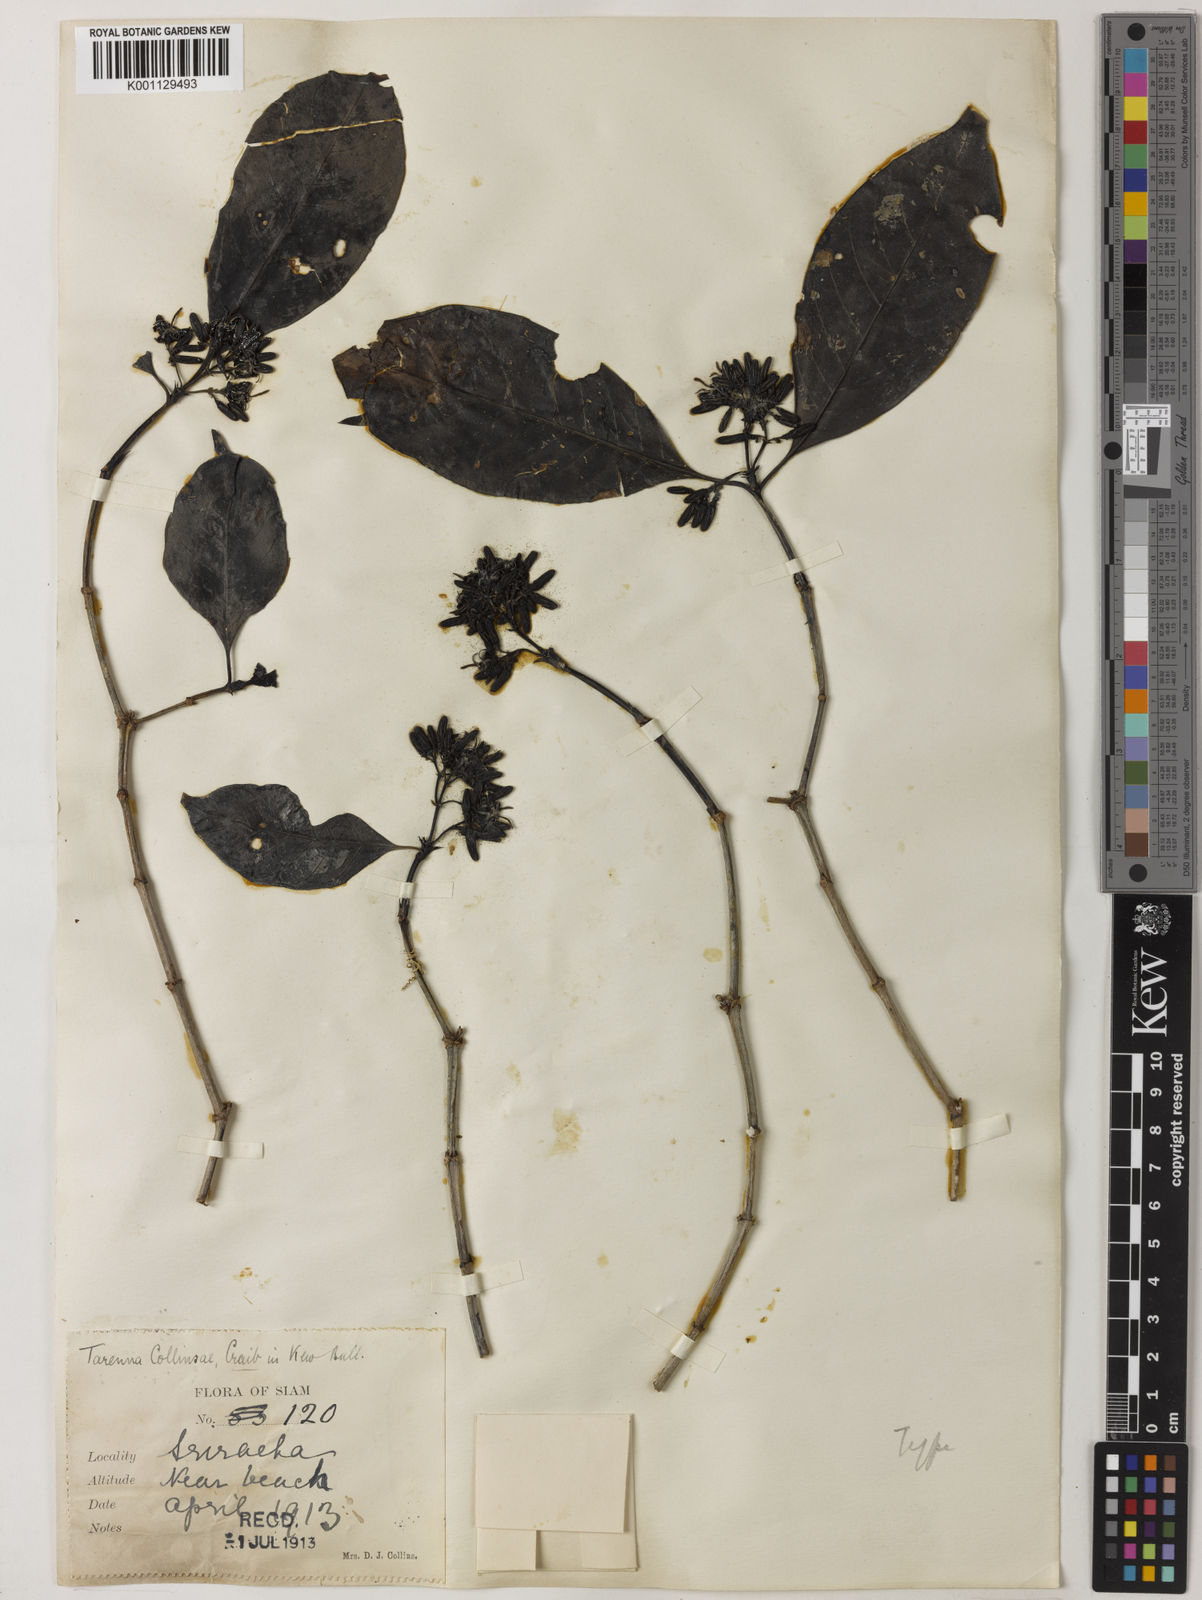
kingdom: Plantae
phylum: Tracheophyta
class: Magnoliopsida
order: Gentianales
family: Rubiaceae
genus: Tarenna
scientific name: Tarenna collinsiae
